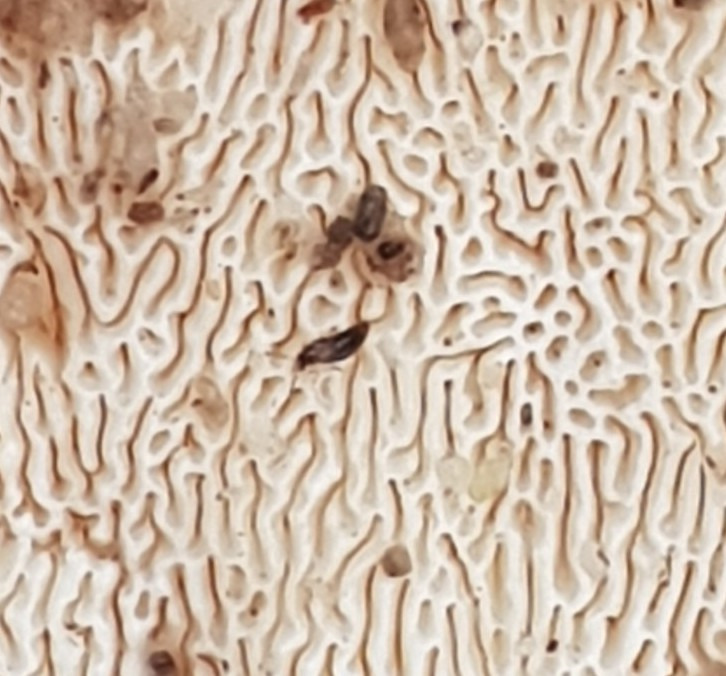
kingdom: Animalia
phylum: Arthropoda
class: Insecta
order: Coleoptera
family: Staphylinidae
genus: Agaricochara
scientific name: Agaricochara latissima
